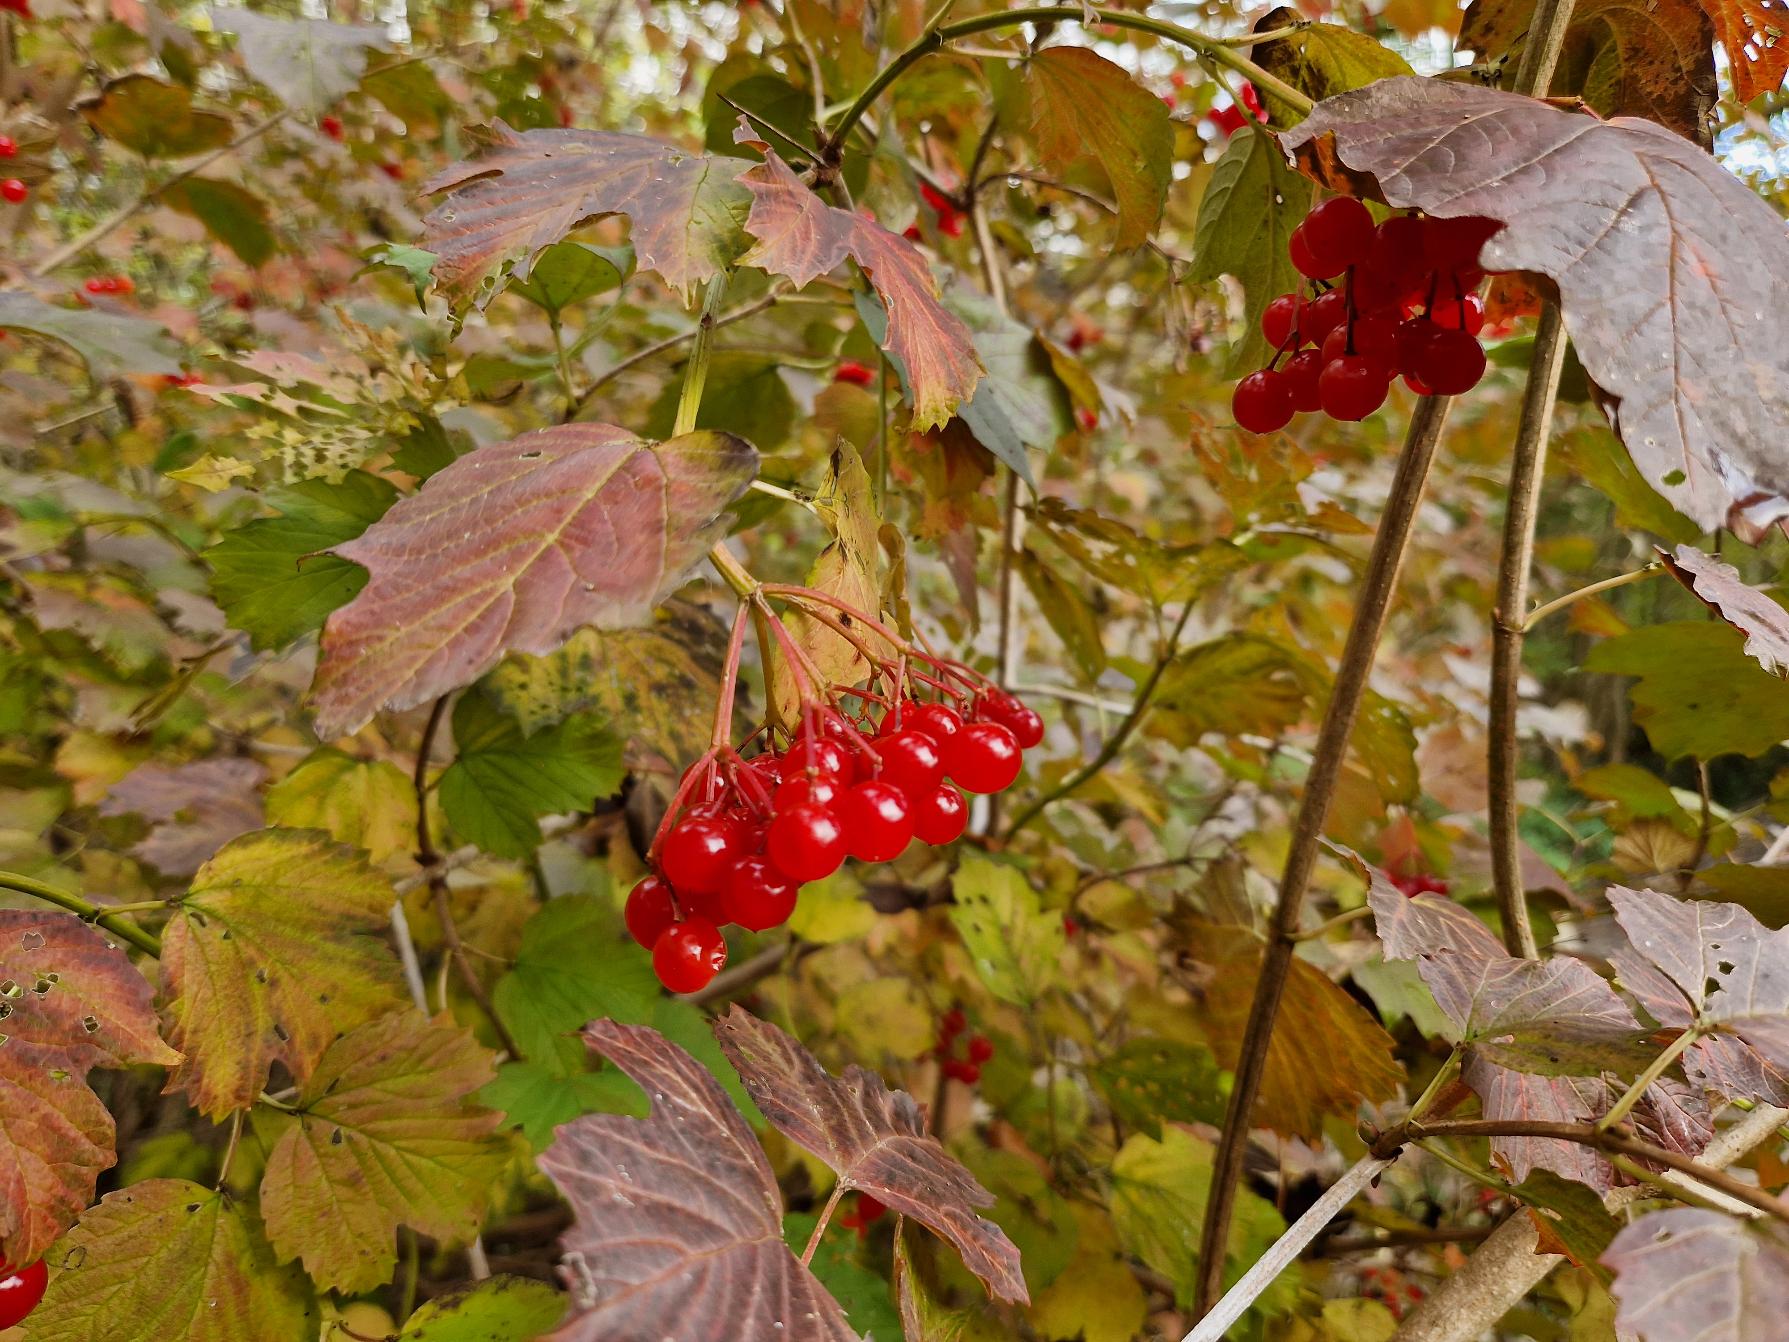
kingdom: Plantae
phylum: Tracheophyta
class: Magnoliopsida
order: Dipsacales
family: Viburnaceae
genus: Viburnum
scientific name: Viburnum opulus
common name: Kvalkved
